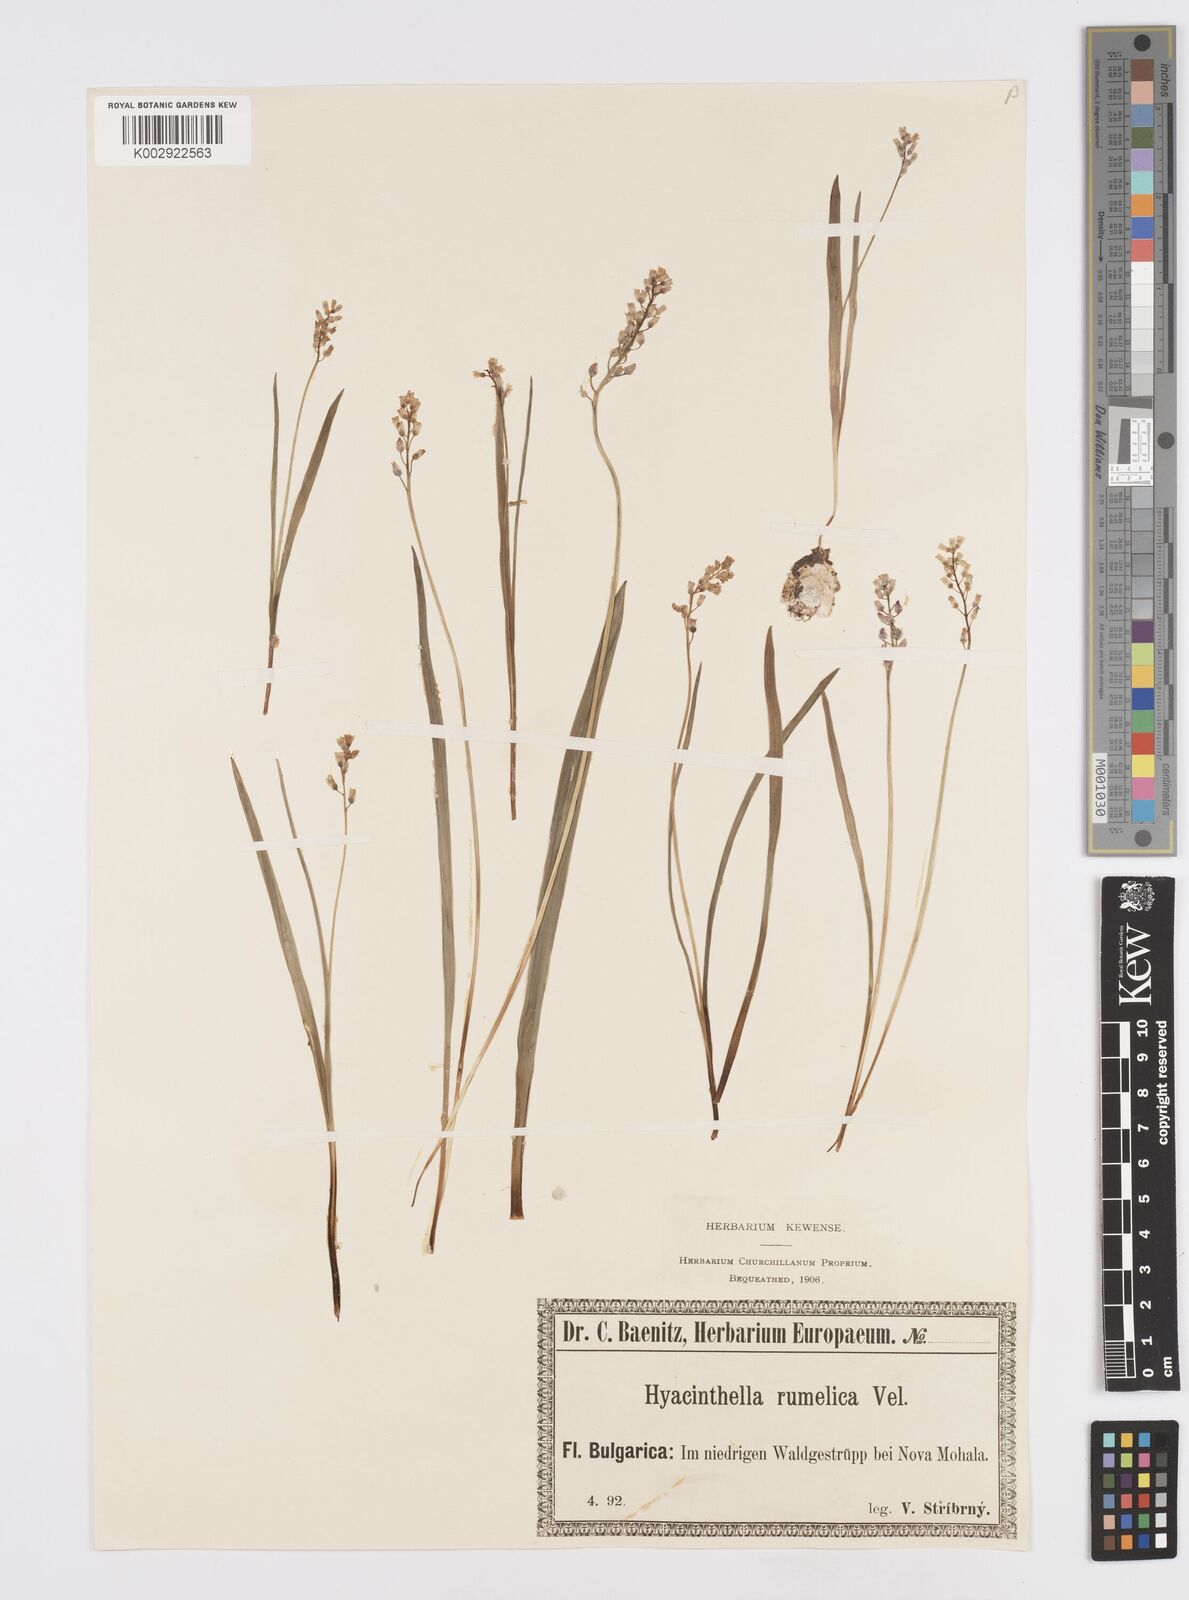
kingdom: Plantae
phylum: Tracheophyta
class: Liliopsida
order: Asparagales
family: Asparagaceae
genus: Hyacinthella
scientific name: Hyacinthella leucophaea
